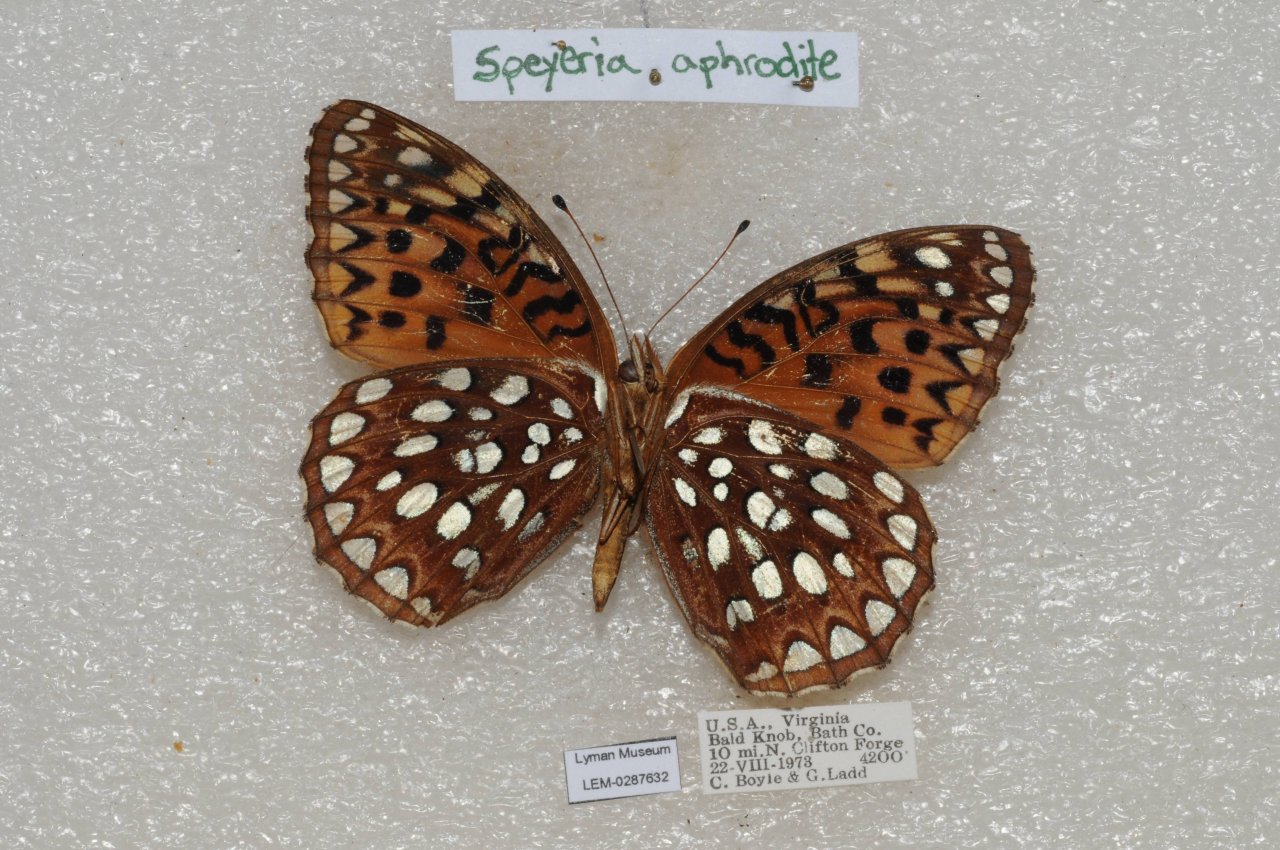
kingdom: Animalia
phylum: Arthropoda
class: Insecta
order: Lepidoptera
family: Nymphalidae
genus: Speyeria
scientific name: Speyeria aphrodite
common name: Aphrodite Fritillary
